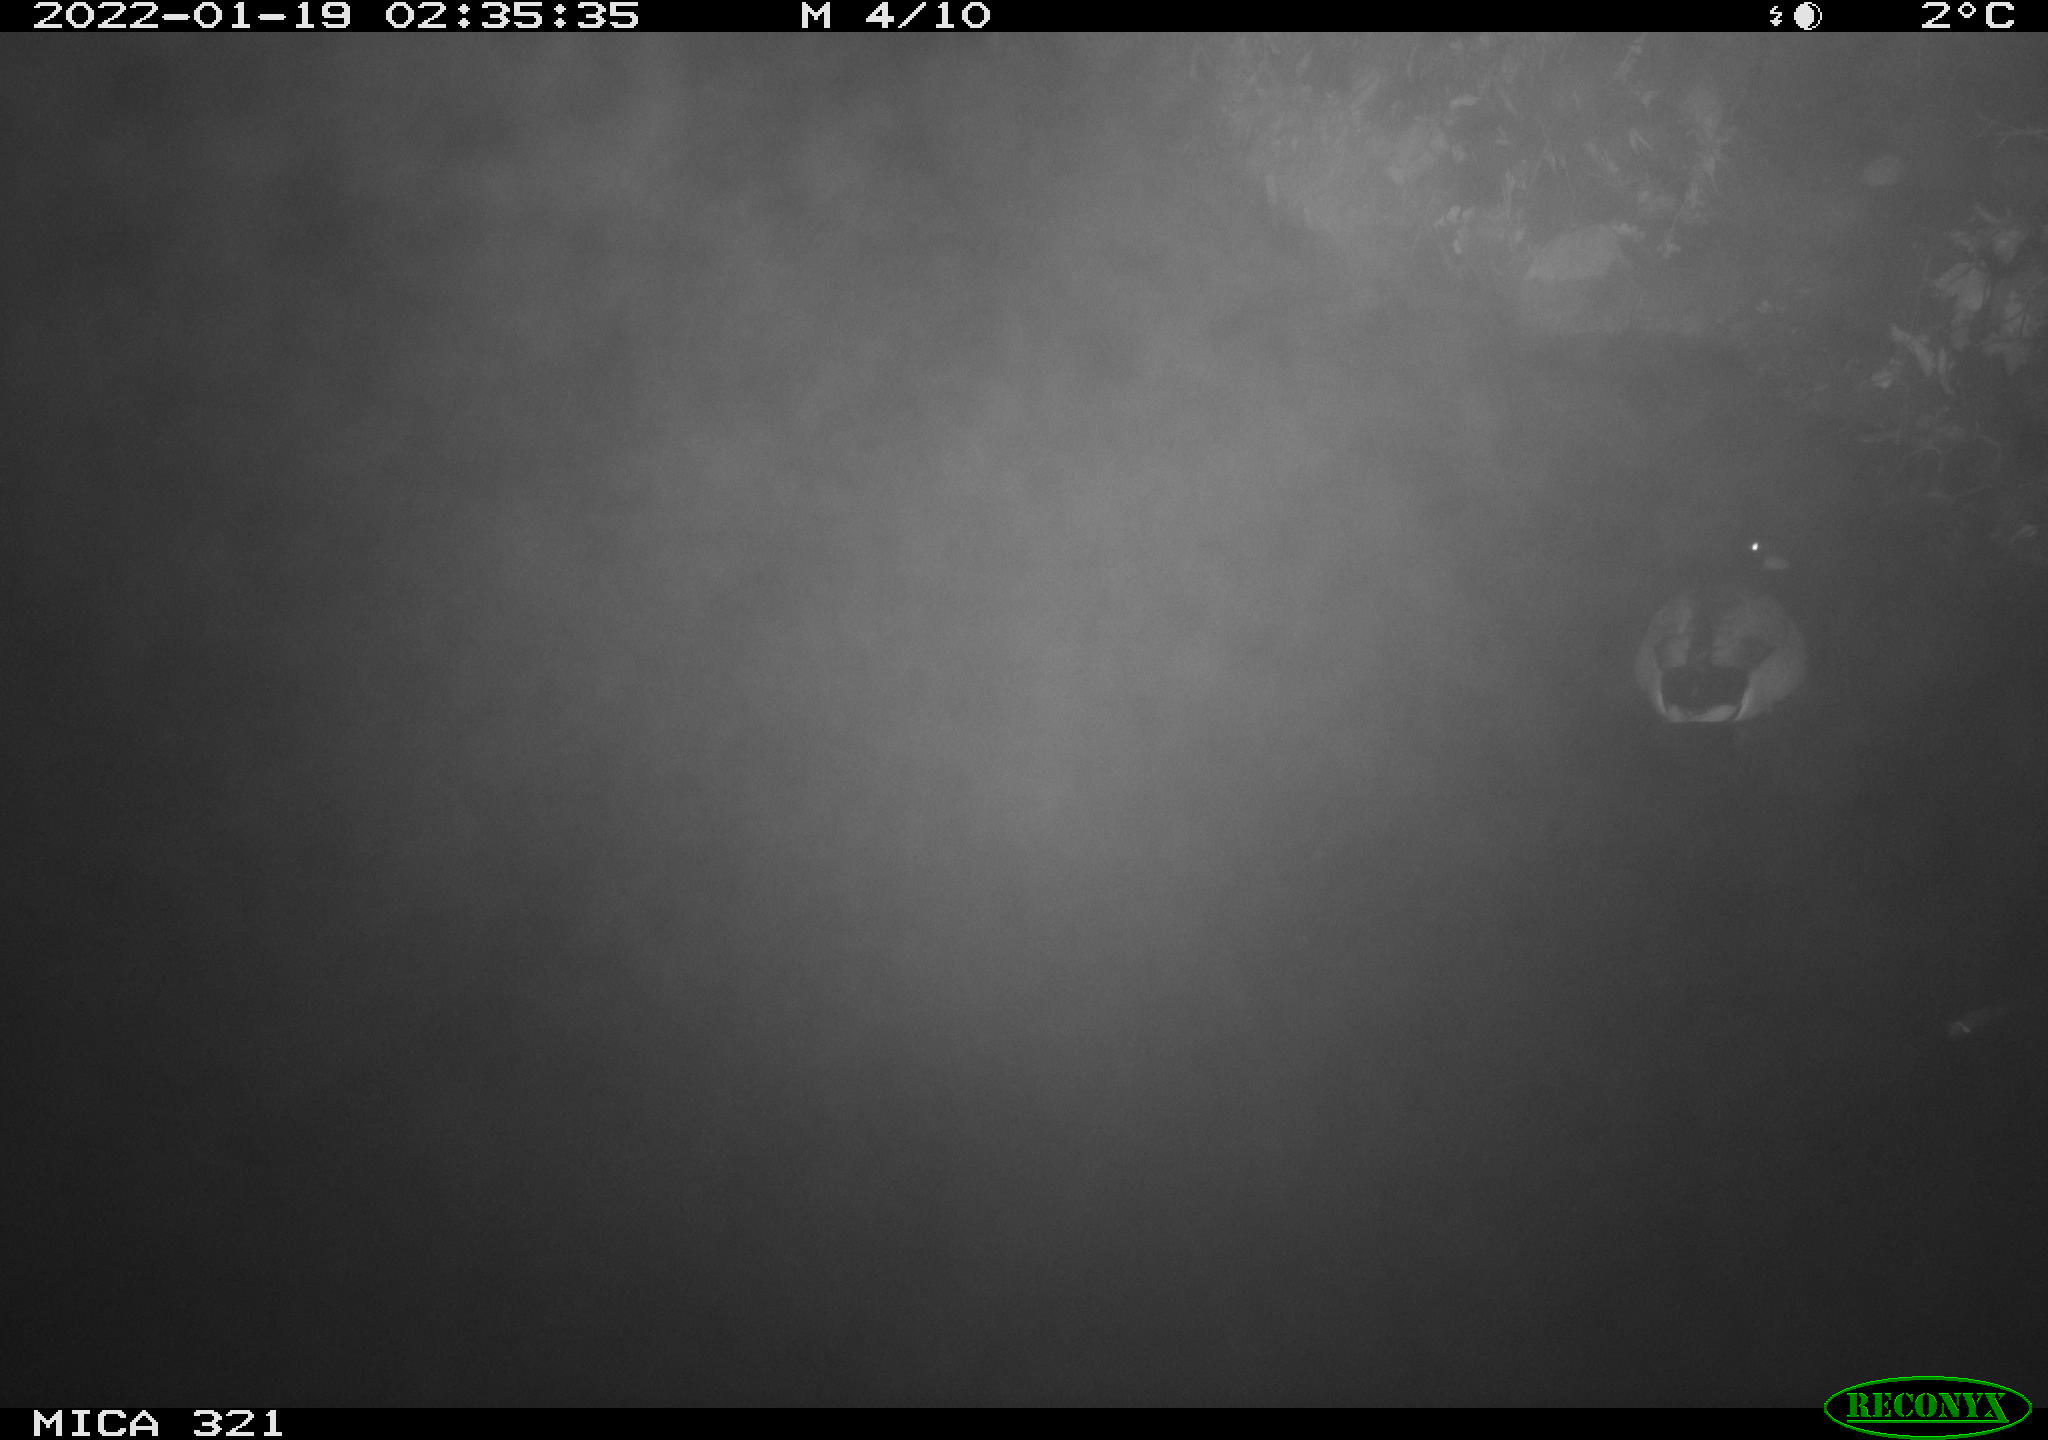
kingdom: Animalia
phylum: Chordata
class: Aves
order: Anseriformes
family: Anatidae
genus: Anas
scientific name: Anas platyrhynchos
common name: Mallard
